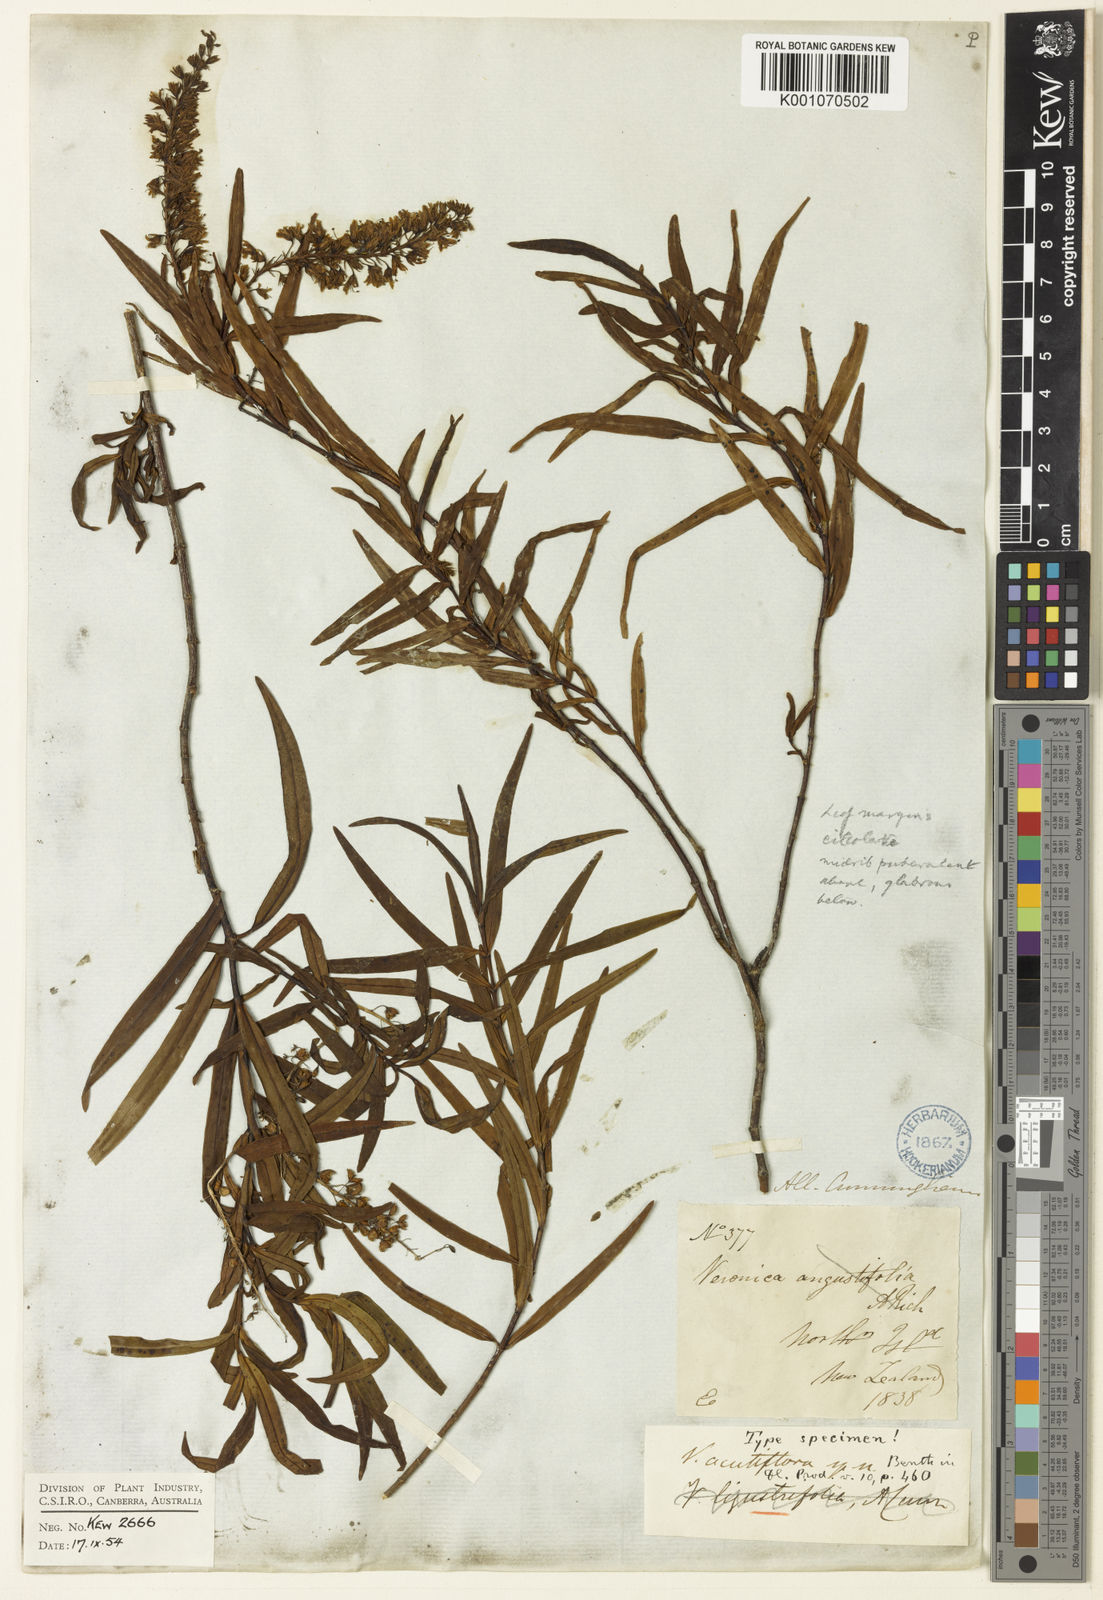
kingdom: Plantae
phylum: Tracheophyta
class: Magnoliopsida
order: Lamiales
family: Plantaginaceae
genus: Veronica
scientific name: Veronica rivalis
